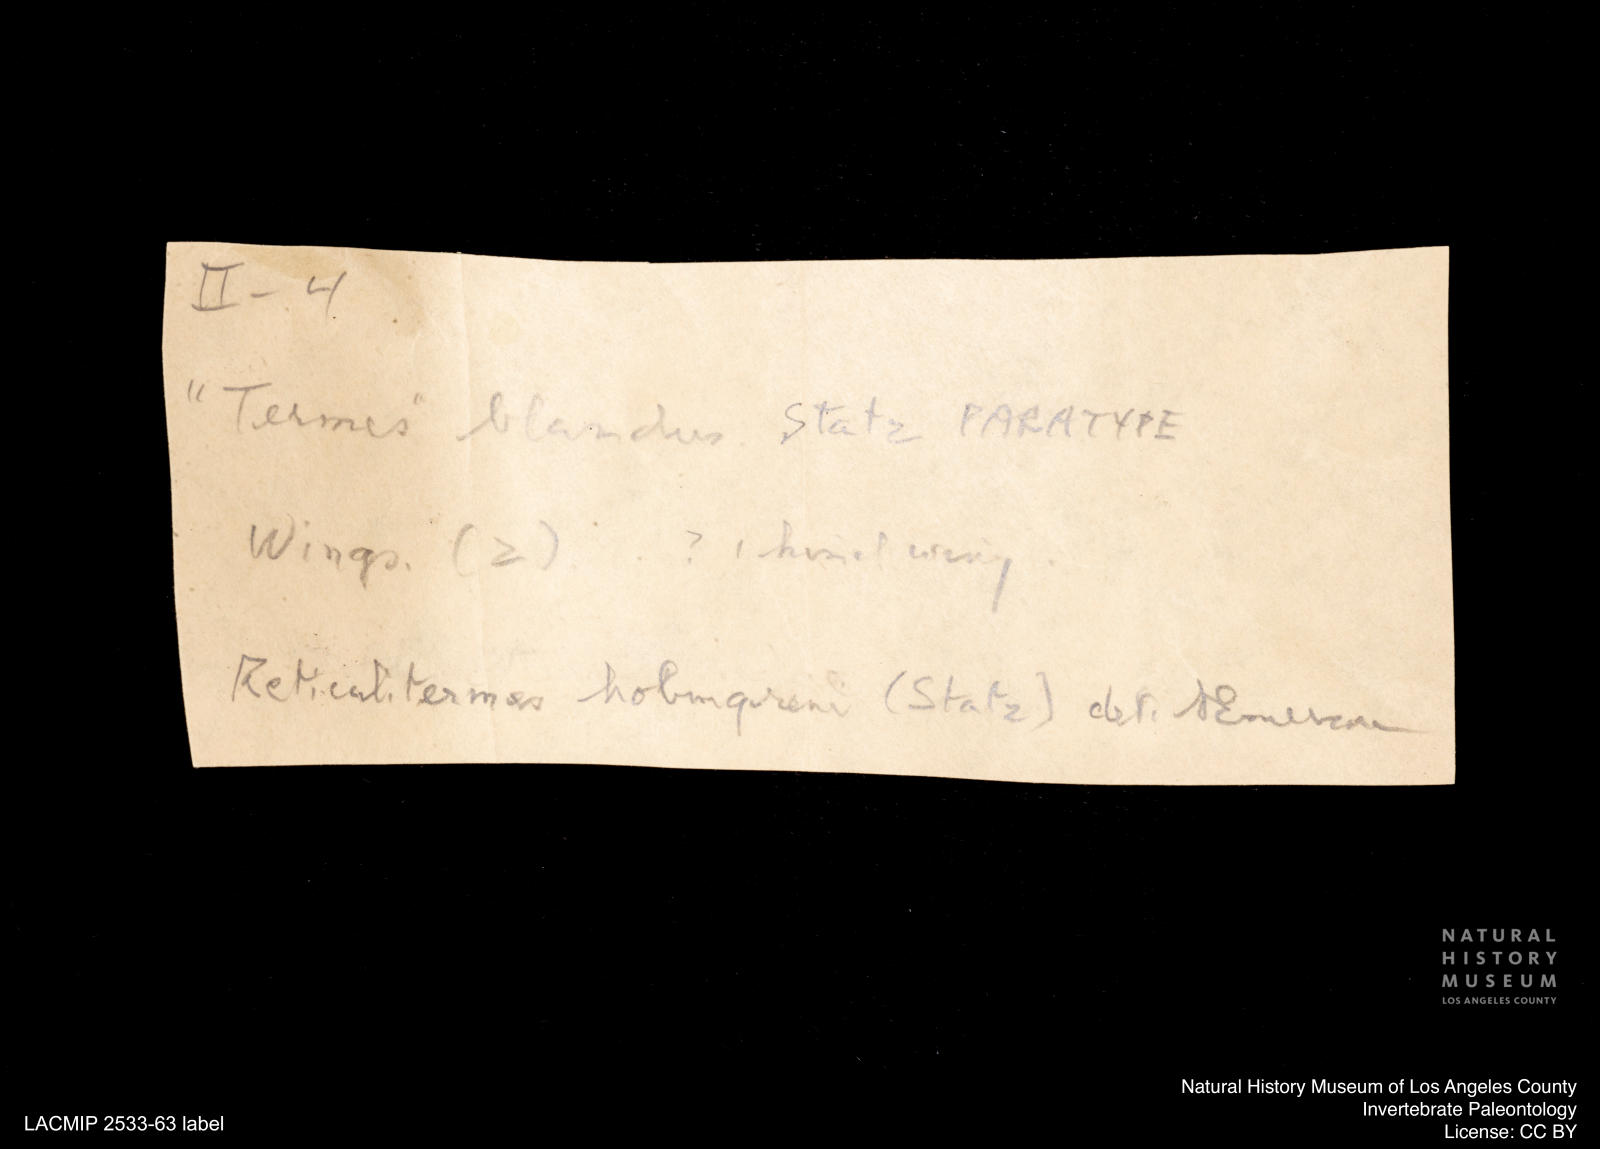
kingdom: Animalia
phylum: Arthropoda
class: Insecta
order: Blattodea
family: Rhinotermitidae
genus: Reticulitermes
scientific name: Reticulitermes holmgreni
